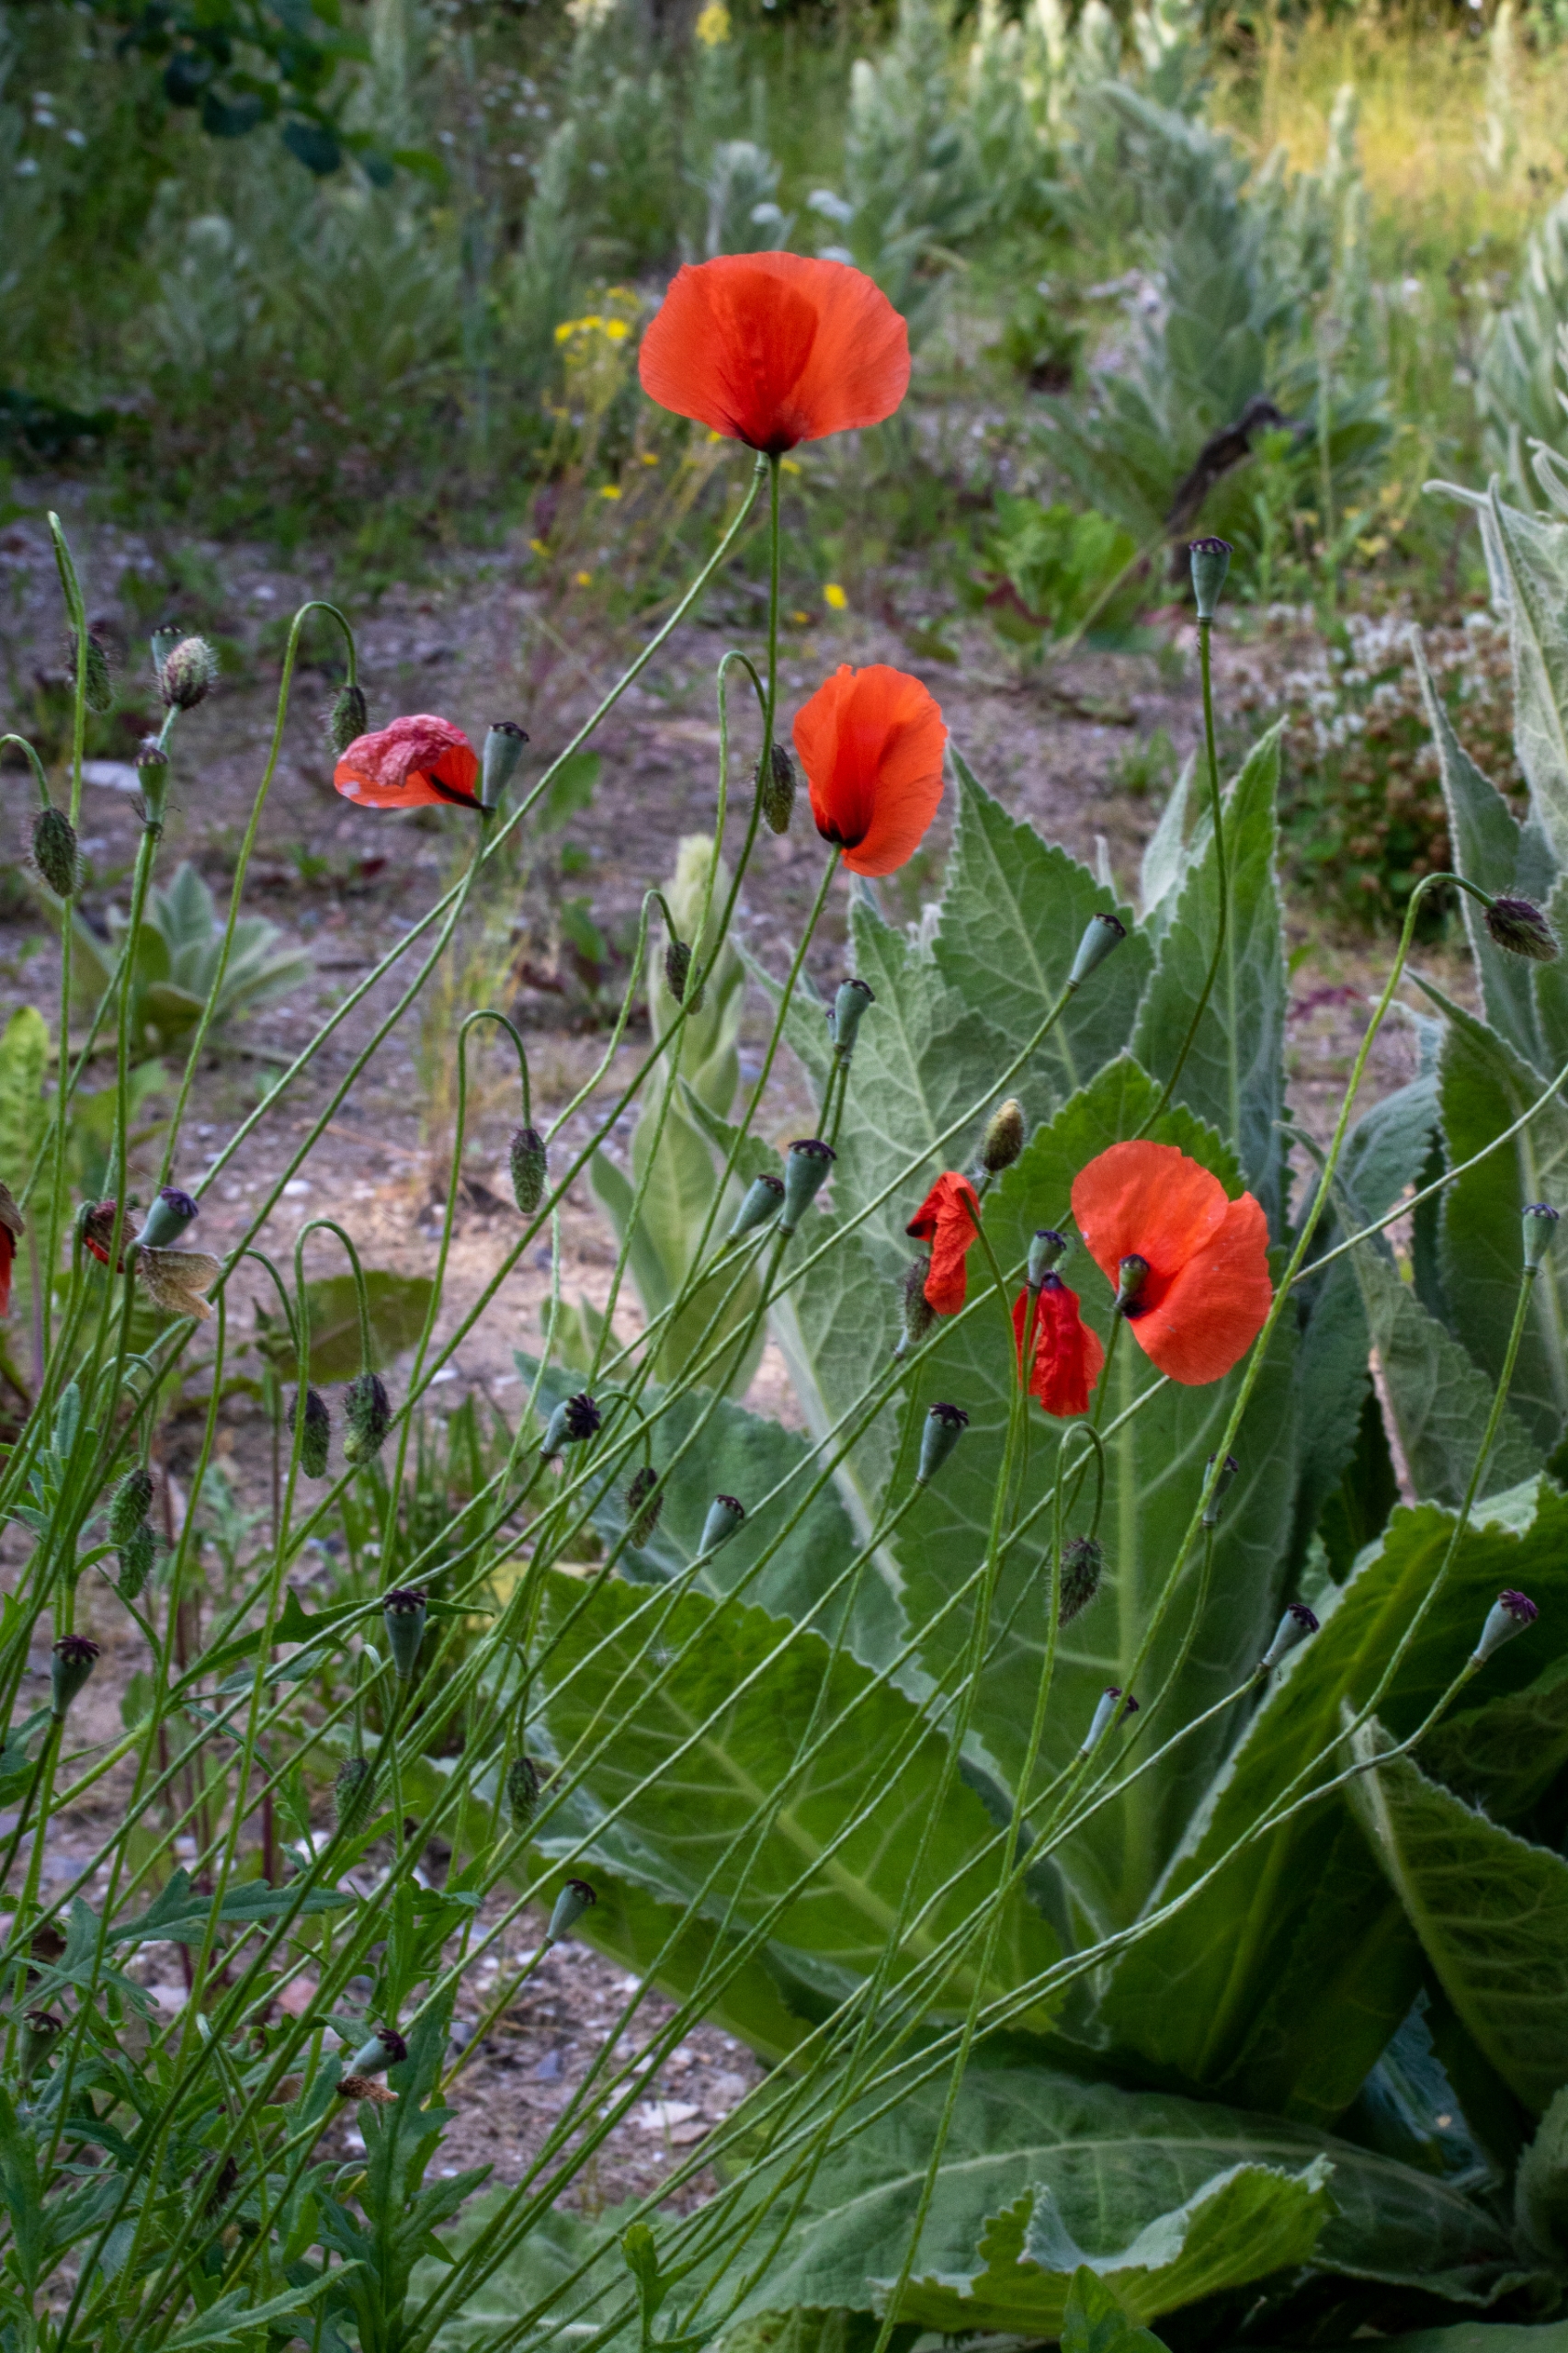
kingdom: Plantae
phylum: Tracheophyta
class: Magnoliopsida
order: Ranunculales
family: Papaveraceae
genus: Papaver
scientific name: Papaver dubium
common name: Gærde-valmue
